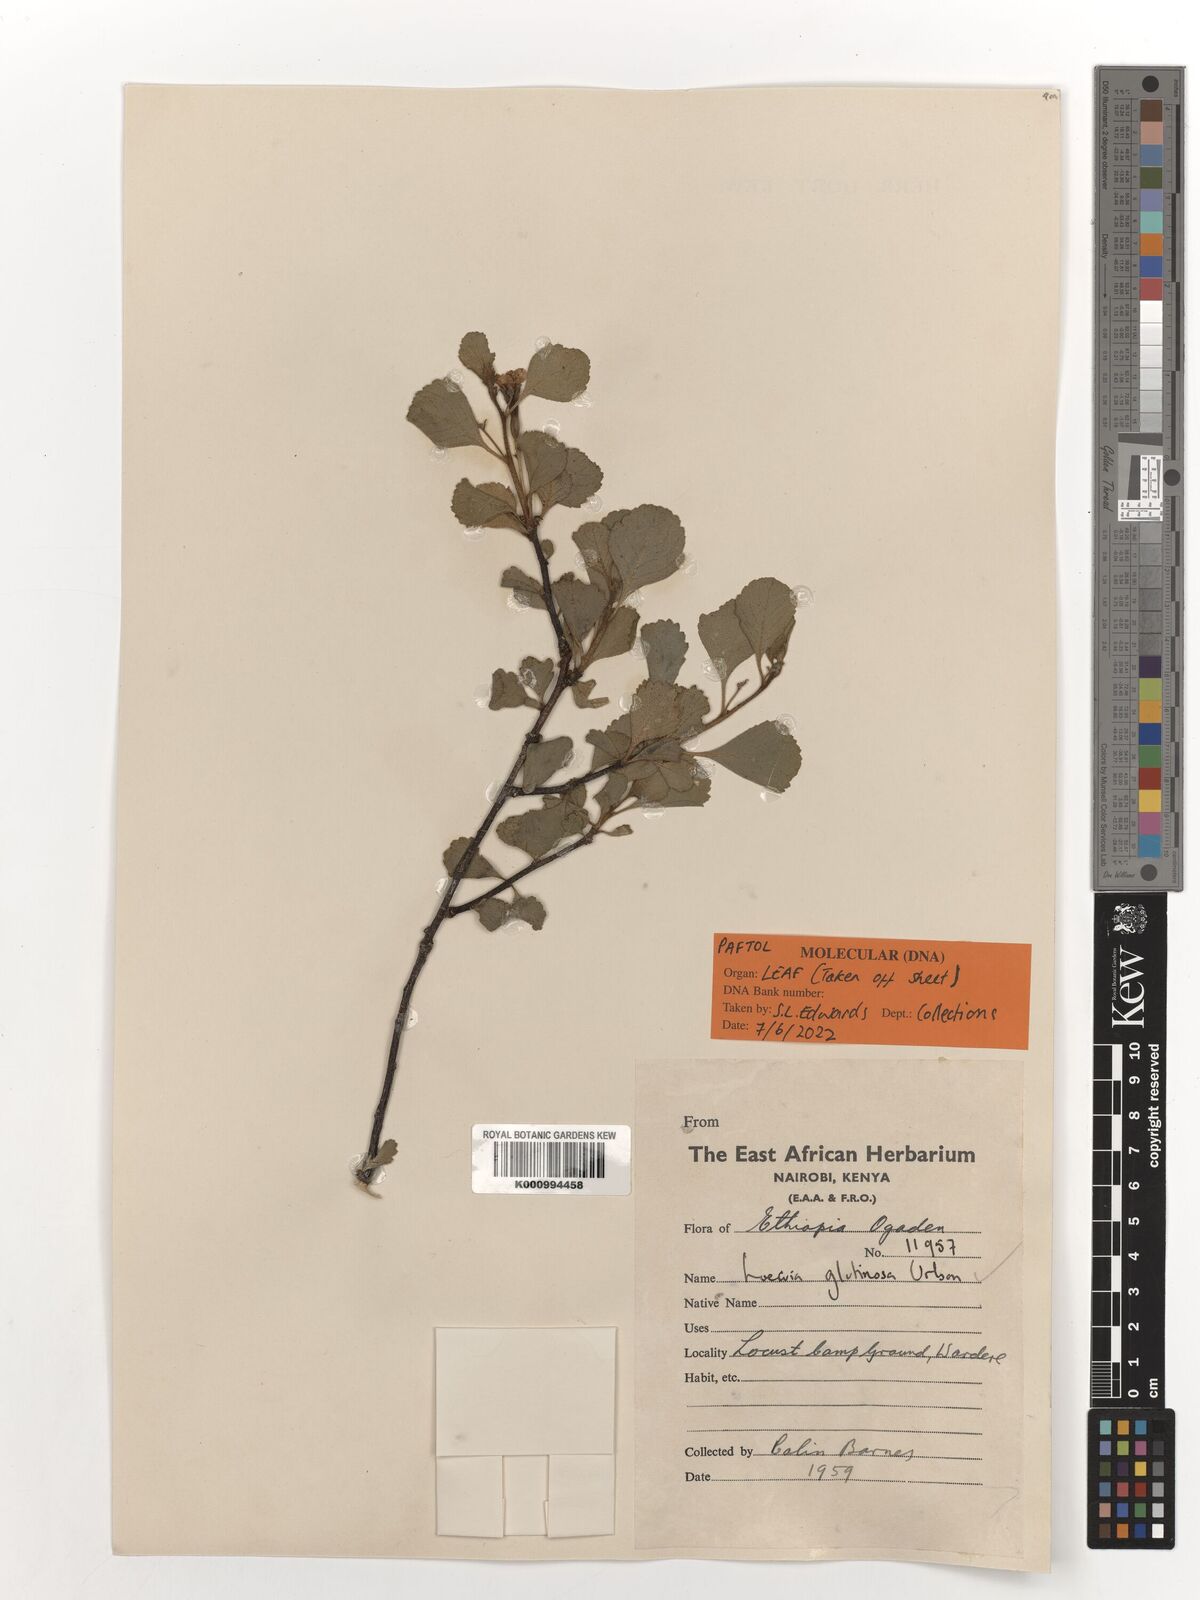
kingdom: Plantae
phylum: Tracheophyta
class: Magnoliopsida
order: Malpighiales
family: Turneraceae
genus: Loewia
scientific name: Loewia glutinosa
